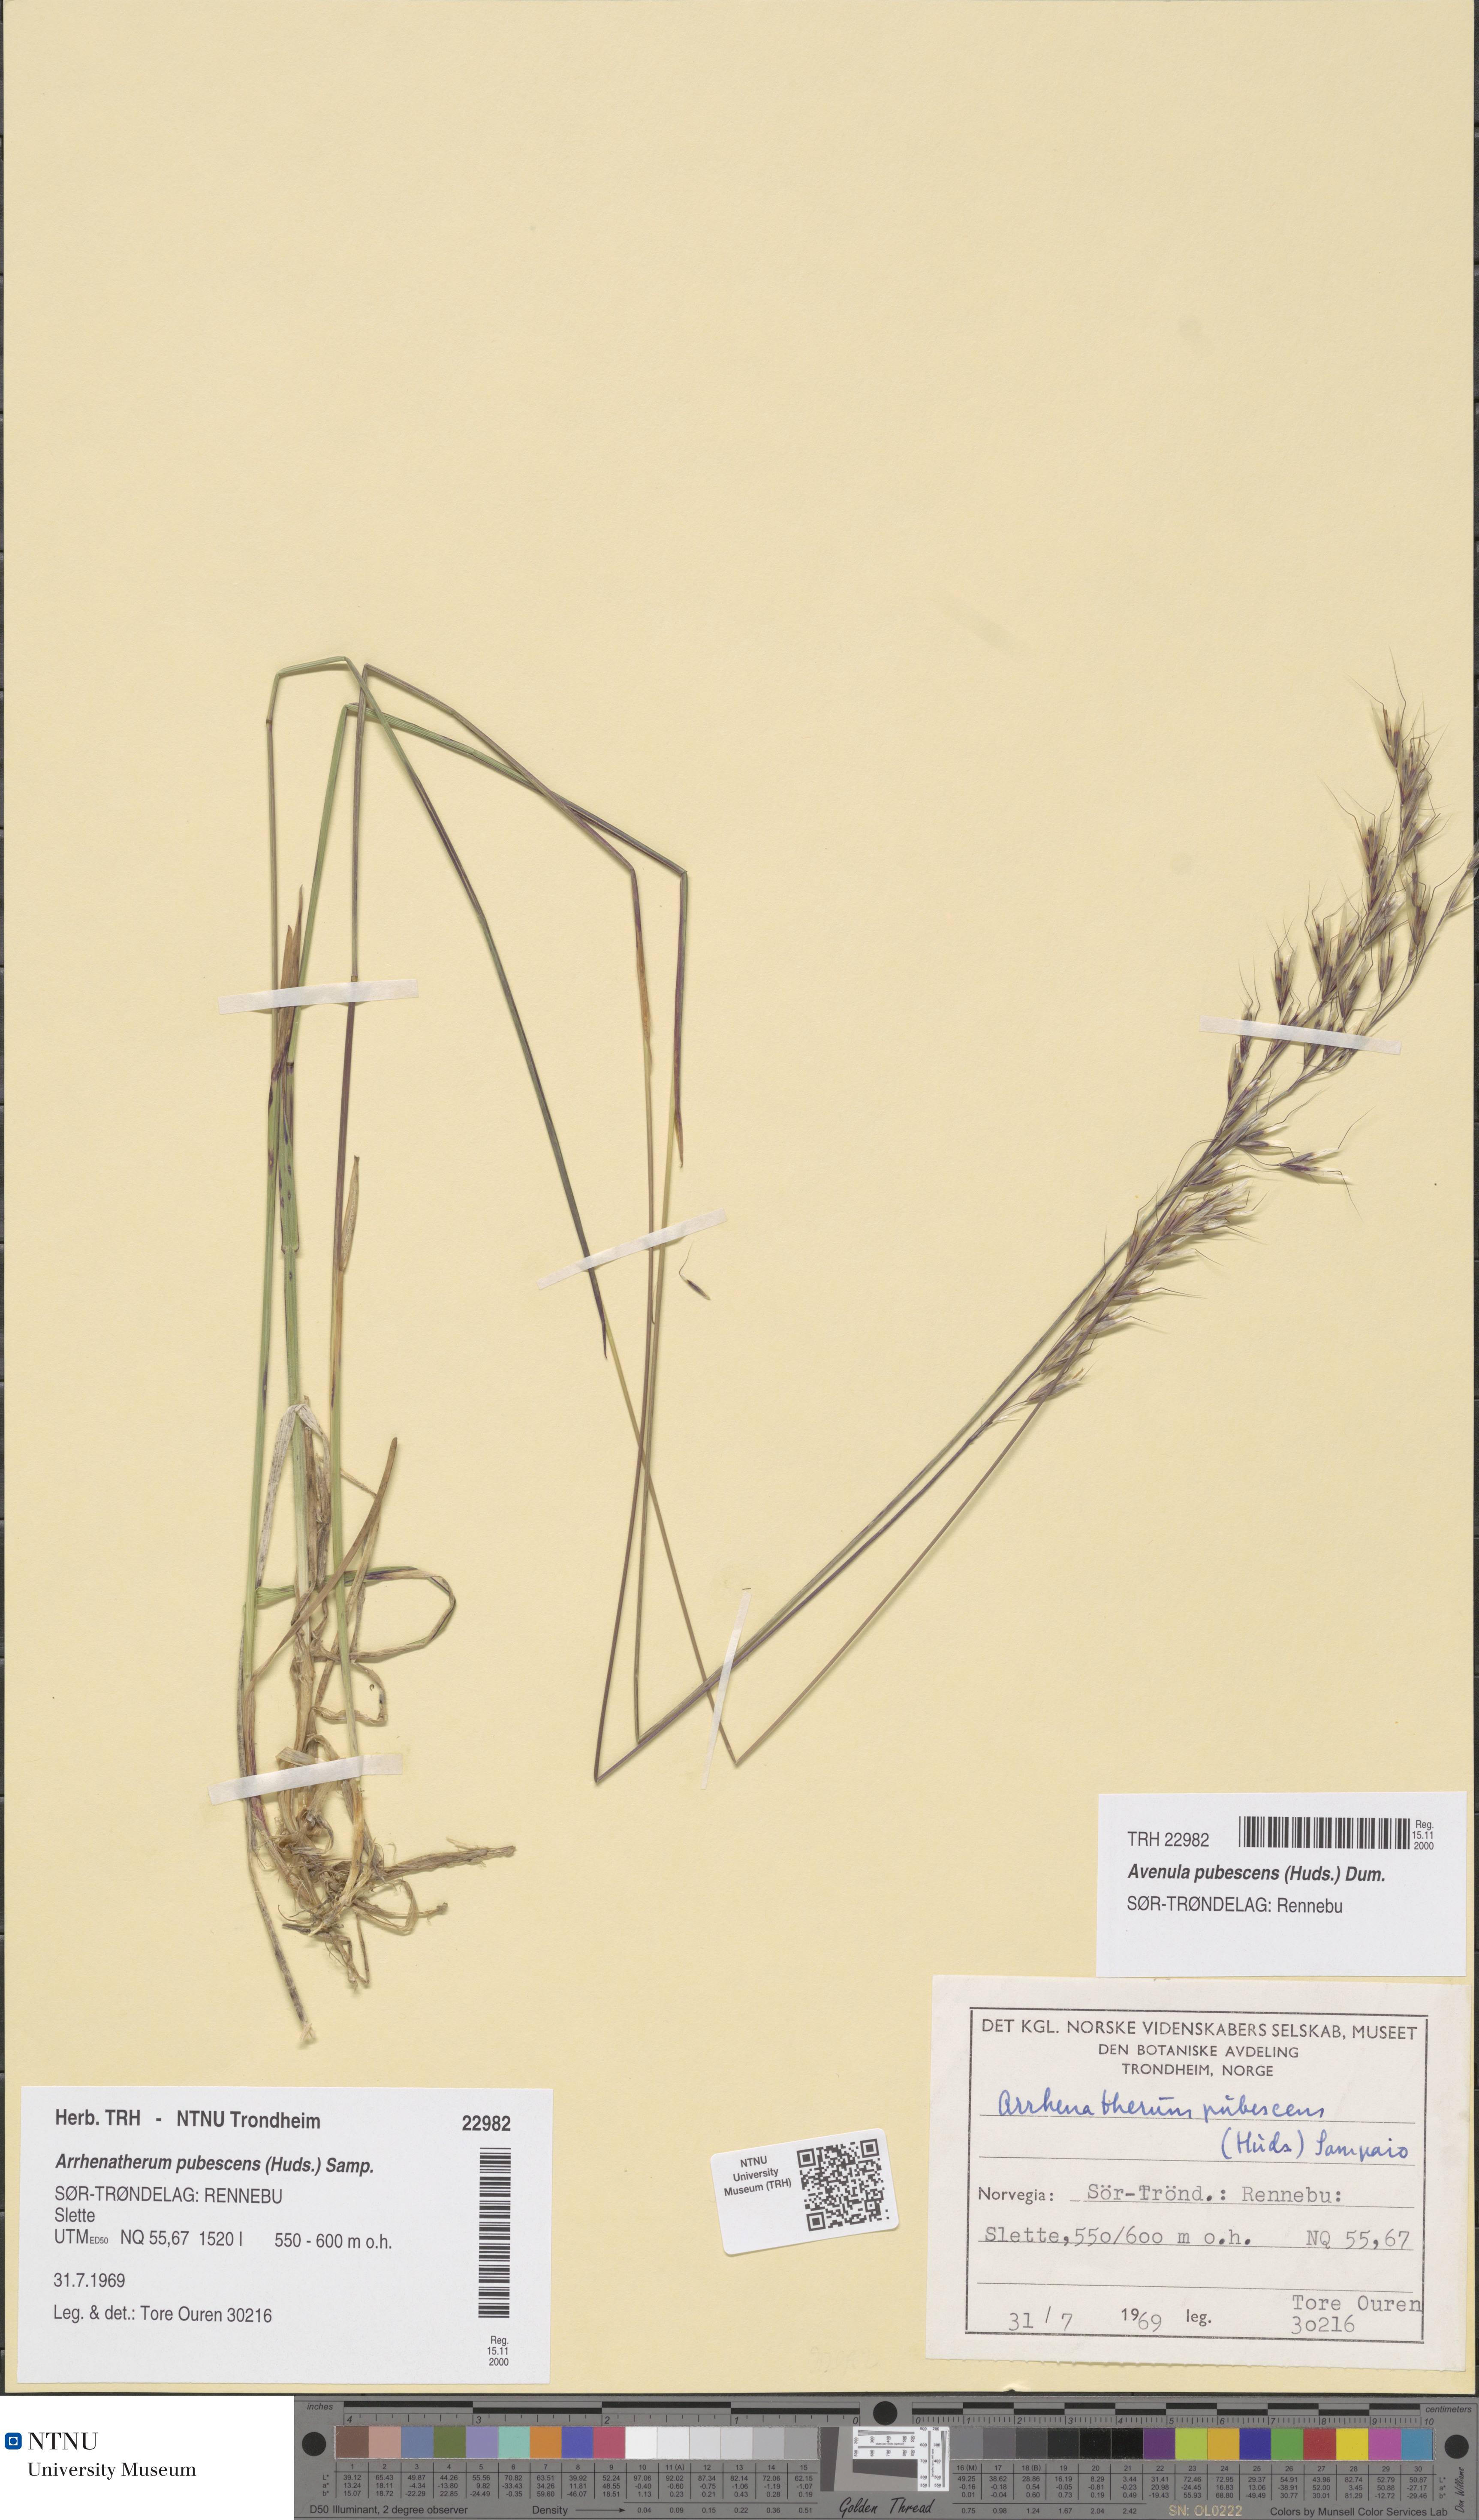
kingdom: Plantae
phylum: Tracheophyta
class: Liliopsida
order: Poales
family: Poaceae
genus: Avenula
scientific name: Avenula pubescens
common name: Downy alpine oatgrass
